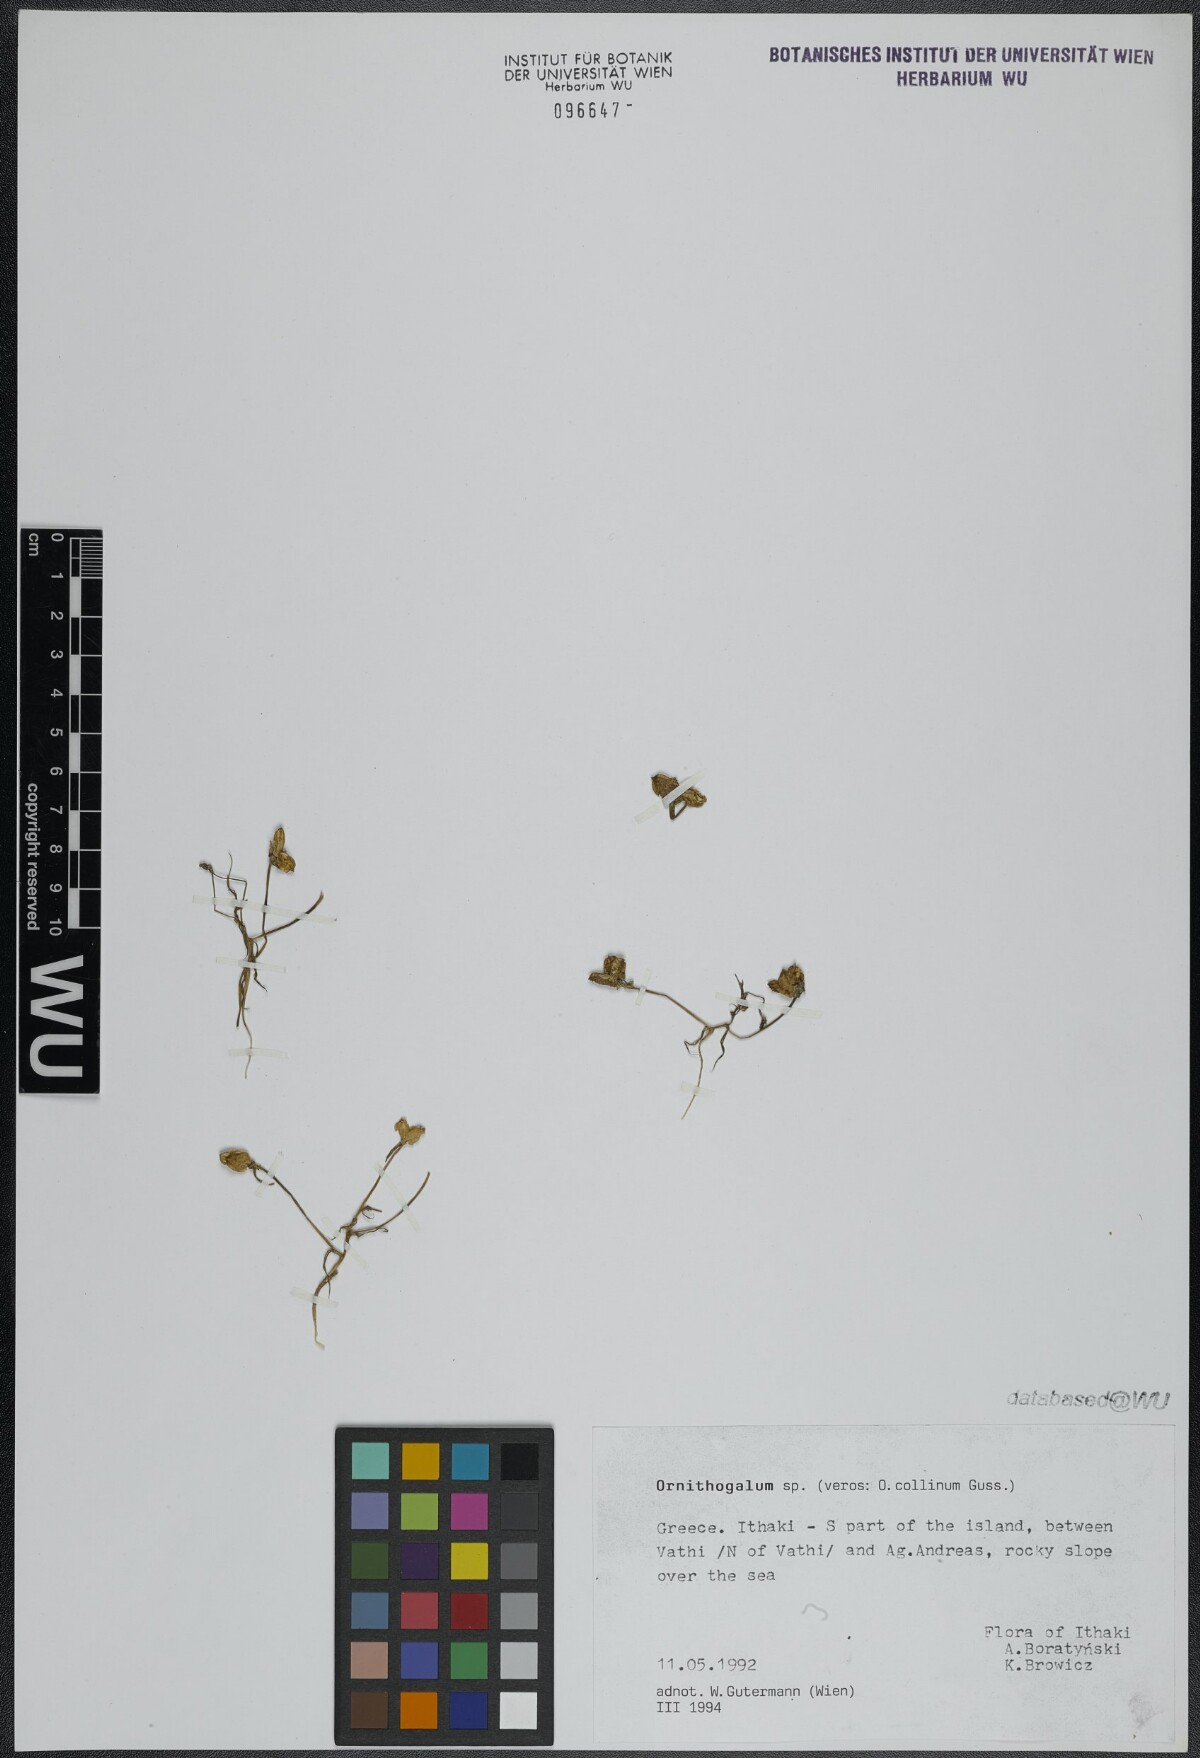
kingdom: Plantae
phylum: Tracheophyta
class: Liliopsida
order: Asparagales
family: Asparagaceae
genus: Ornithogalum
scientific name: Ornithogalum collinum
